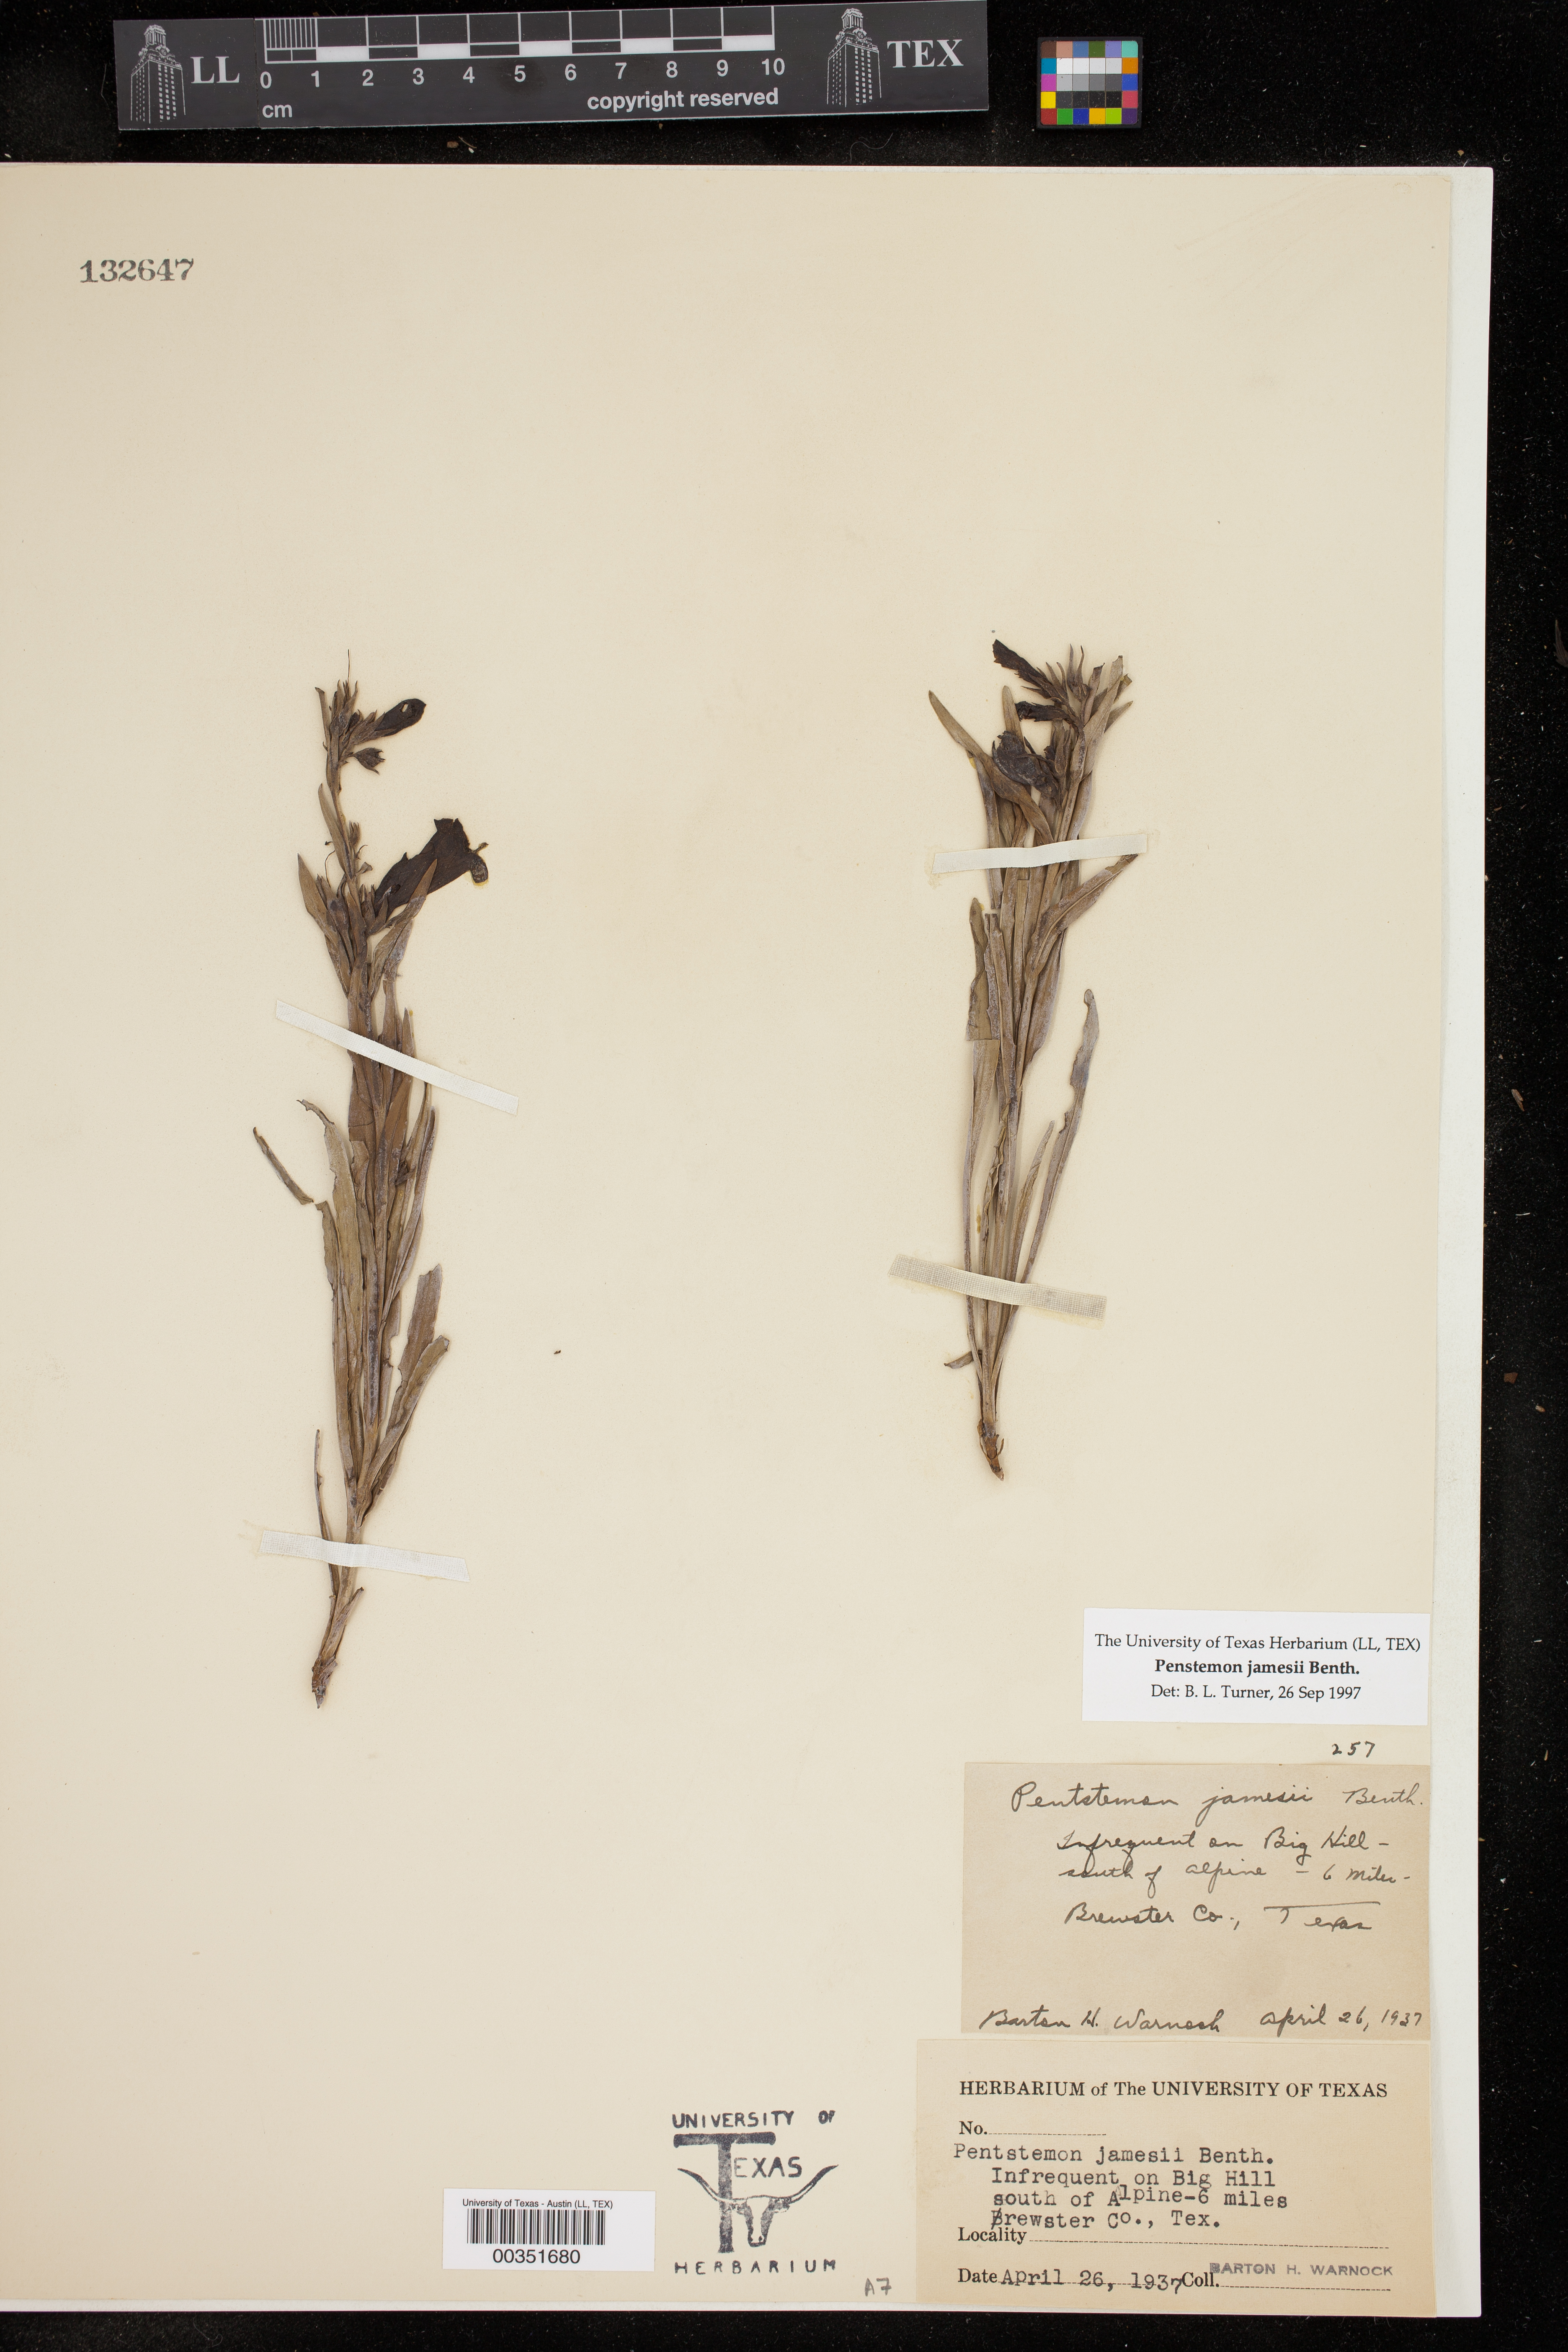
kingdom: Plantae
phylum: Tracheophyta
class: Magnoliopsida
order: Lamiales
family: Plantaginaceae
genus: Penstemon
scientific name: Penstemon jamesii
